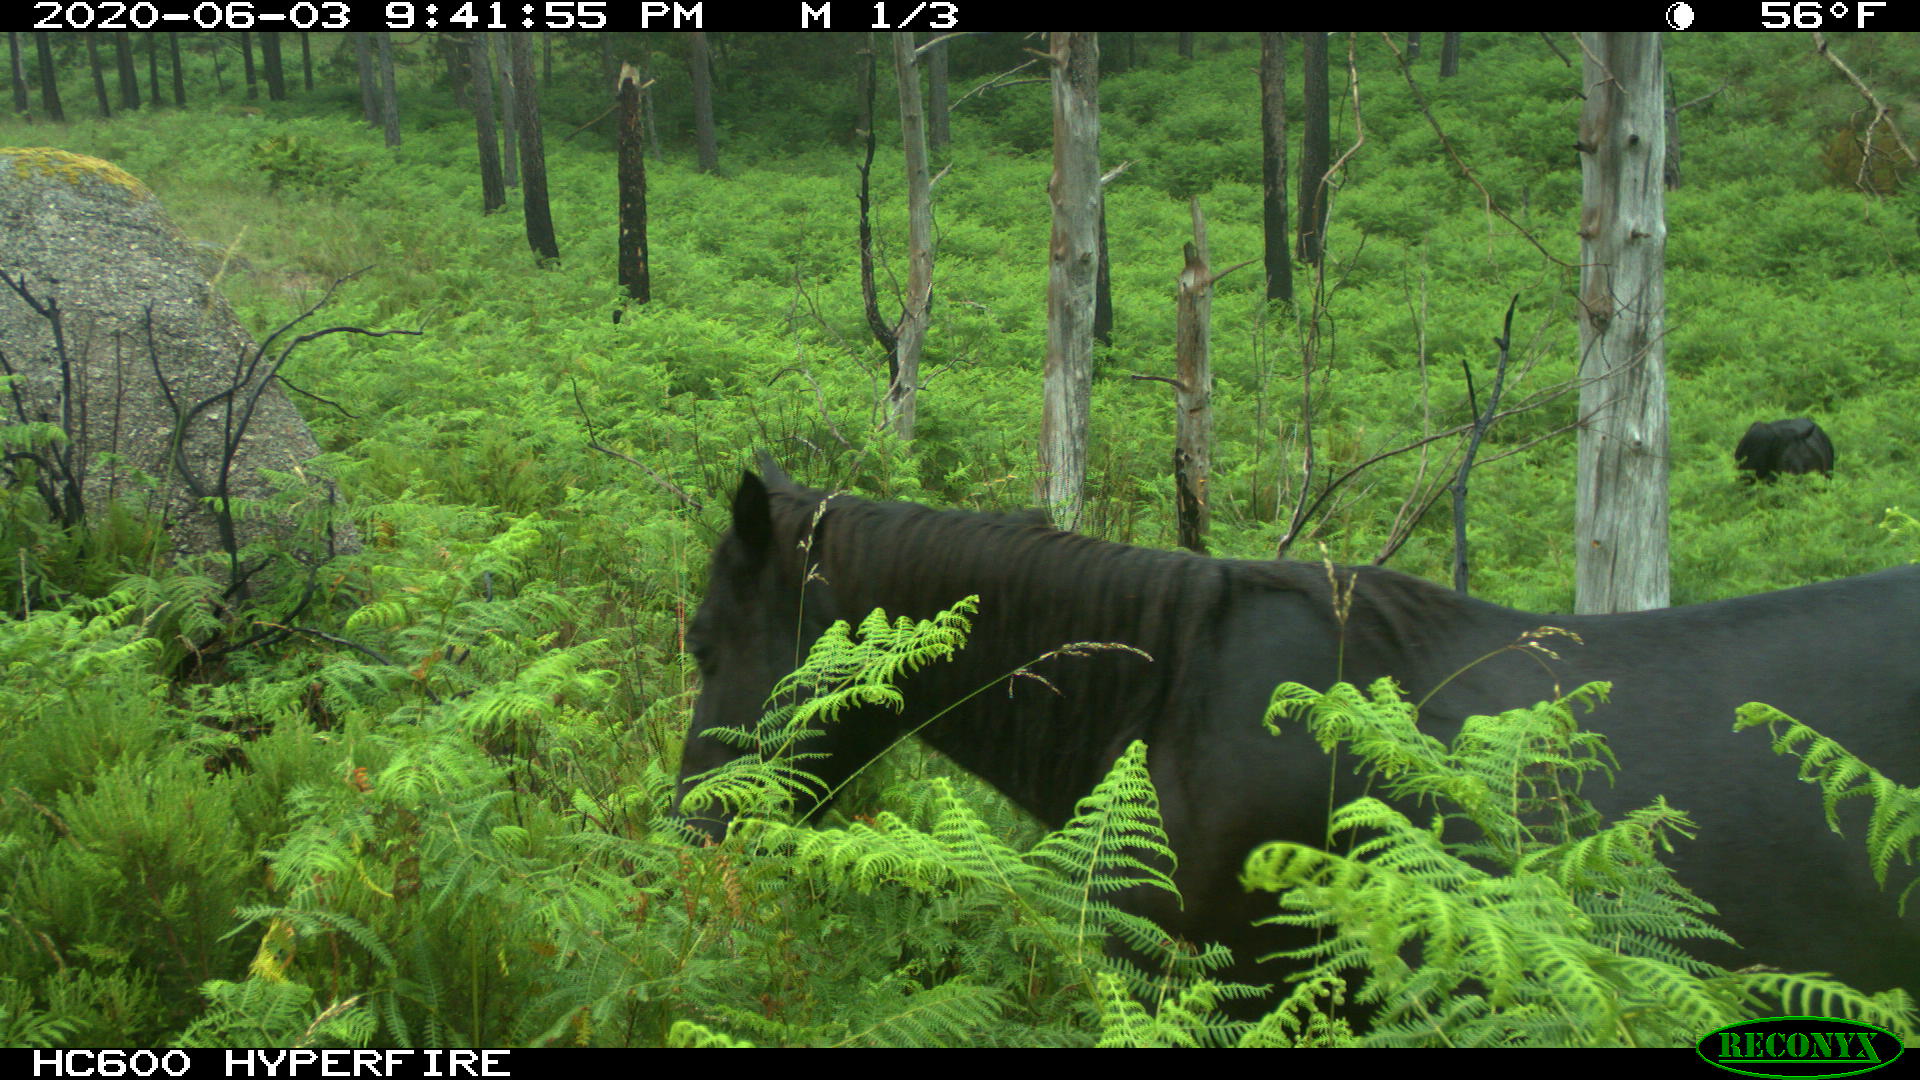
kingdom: Animalia
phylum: Chordata
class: Mammalia
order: Perissodactyla
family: Equidae
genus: Equus
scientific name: Equus caballus
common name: Horse
